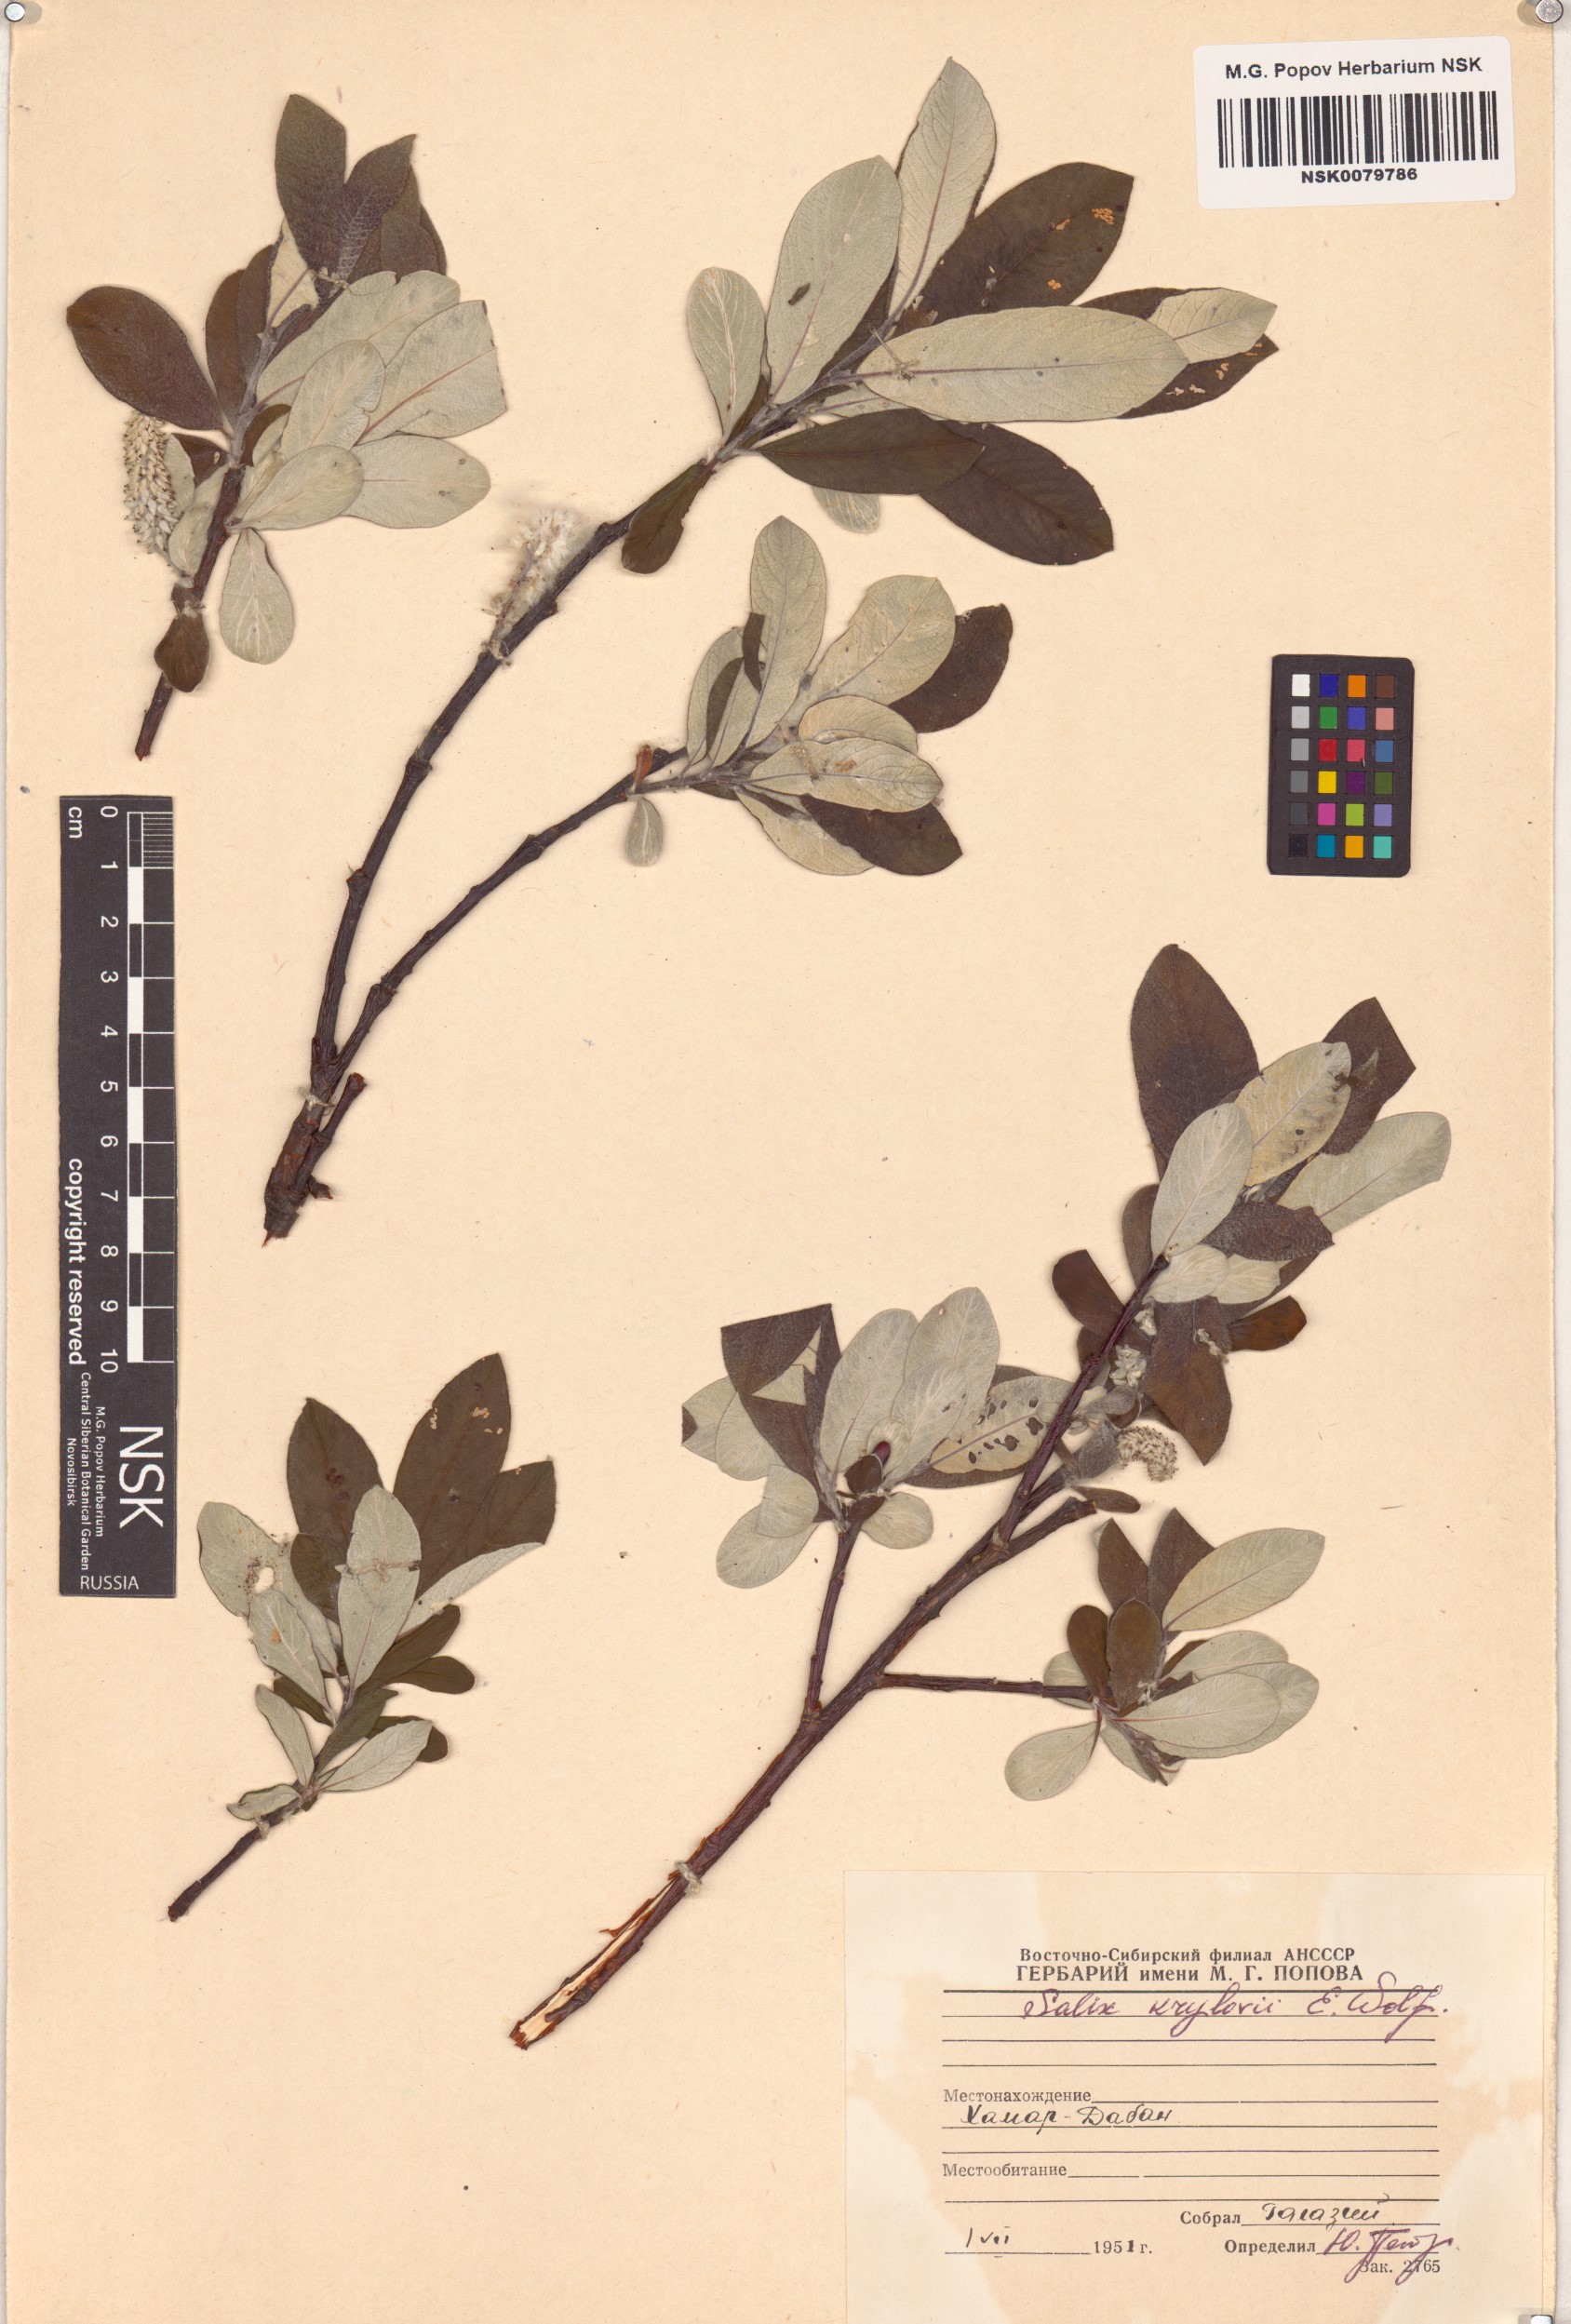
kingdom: Plantae
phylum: Tracheophyta
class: Magnoliopsida
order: Malpighiales
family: Salicaceae
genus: Salix
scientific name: Salix krylovii
